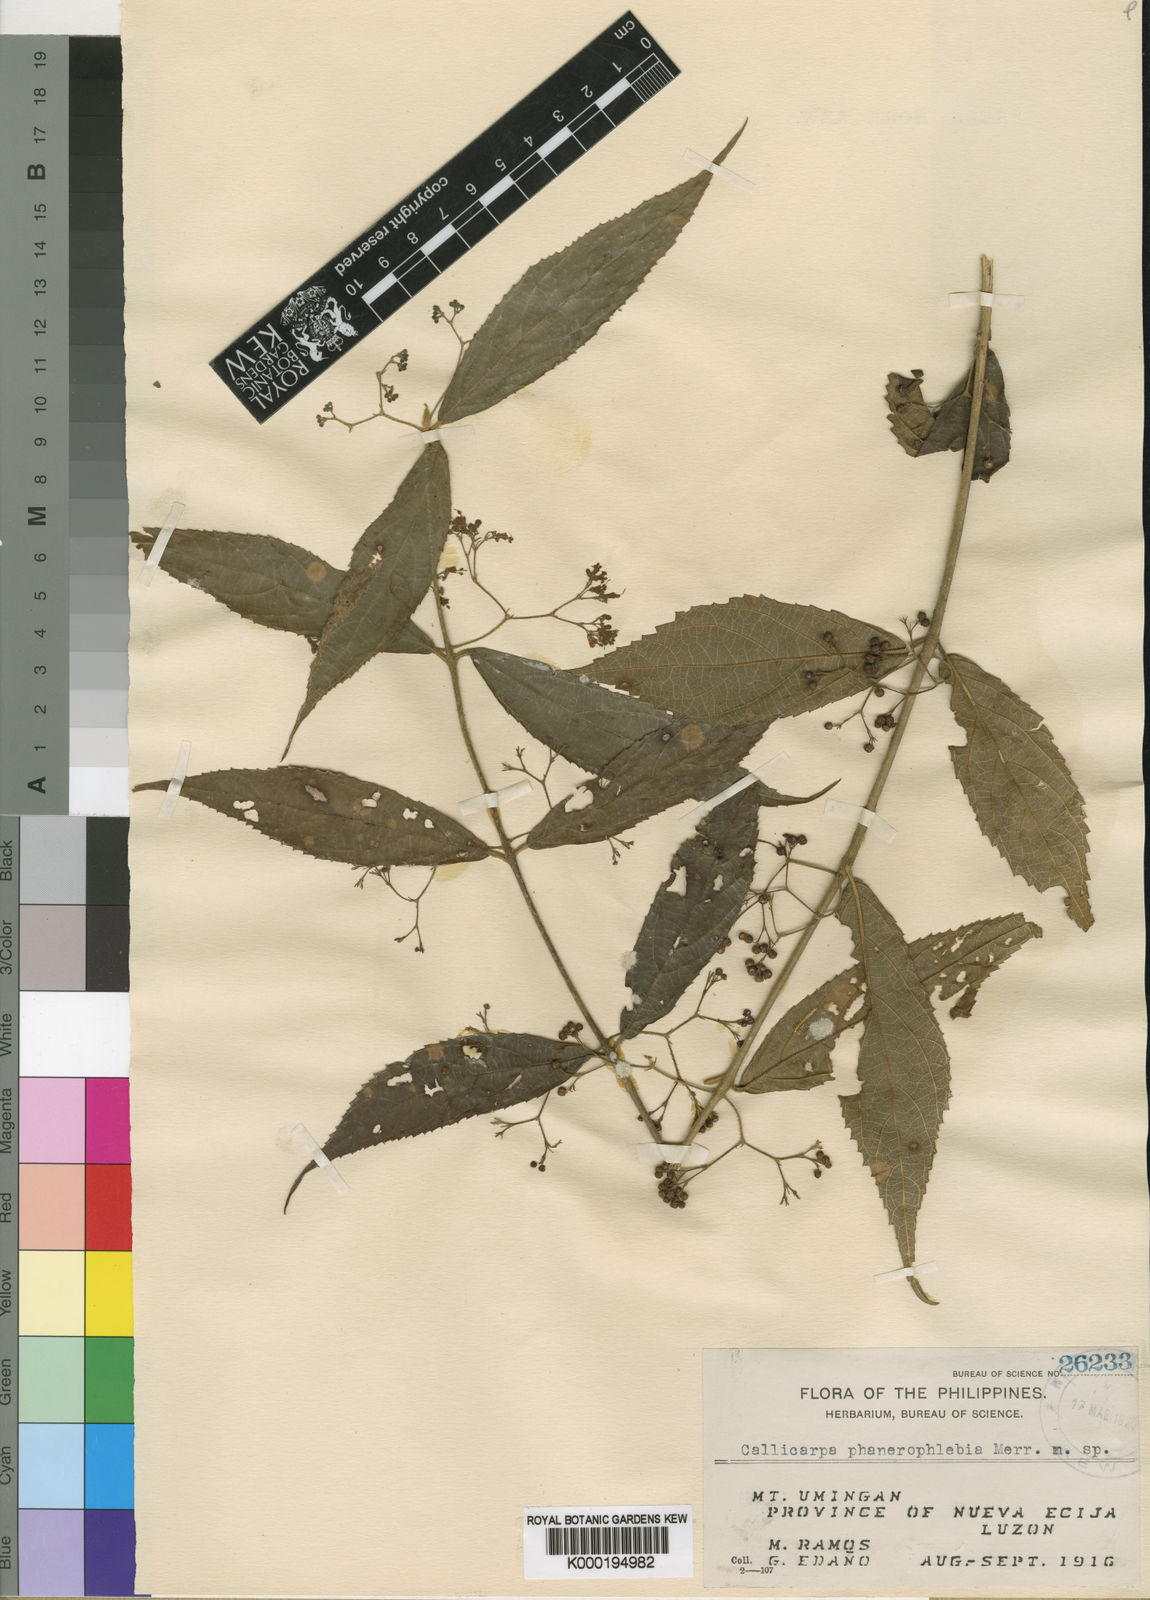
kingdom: Plantae
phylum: Tracheophyta
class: Magnoliopsida
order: Lamiales
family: Lamiaceae
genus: Callicarpa
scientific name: Callicarpa micrantha
